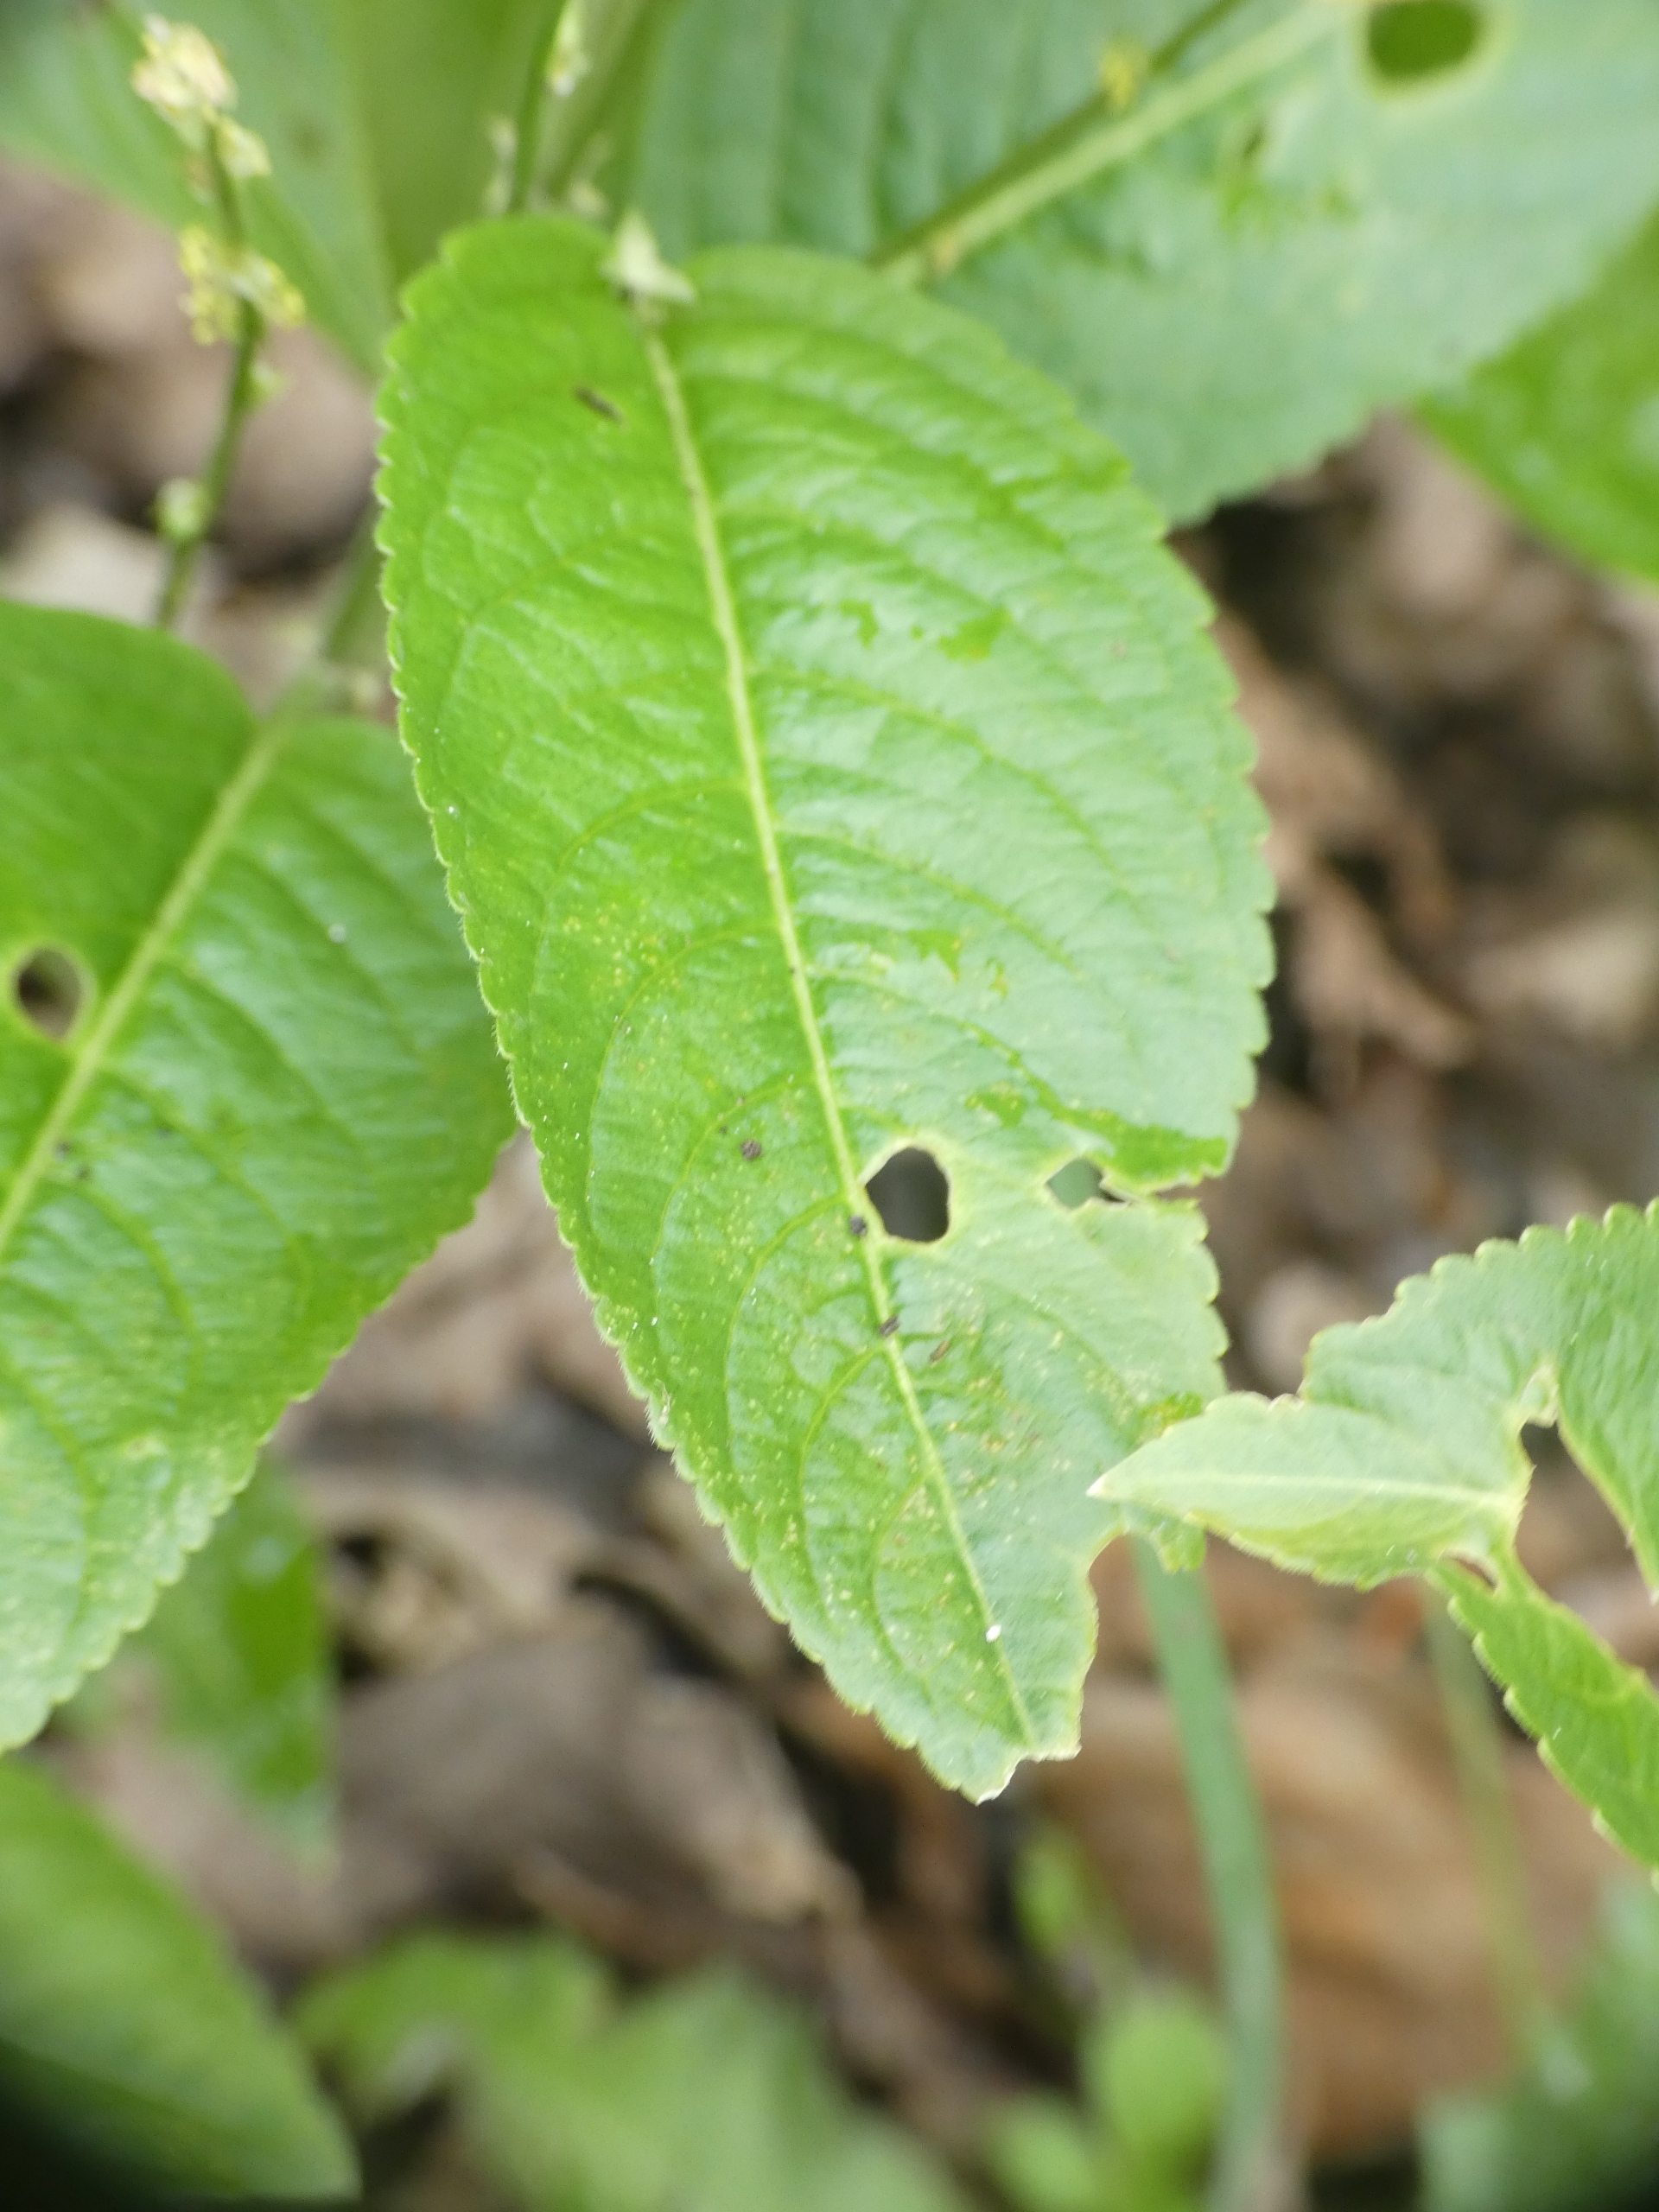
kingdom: Plantae
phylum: Tracheophyta
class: Magnoliopsida
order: Malpighiales
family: Euphorbiaceae
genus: Mercurialis
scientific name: Mercurialis perennis
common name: Almindelig bingelurt
